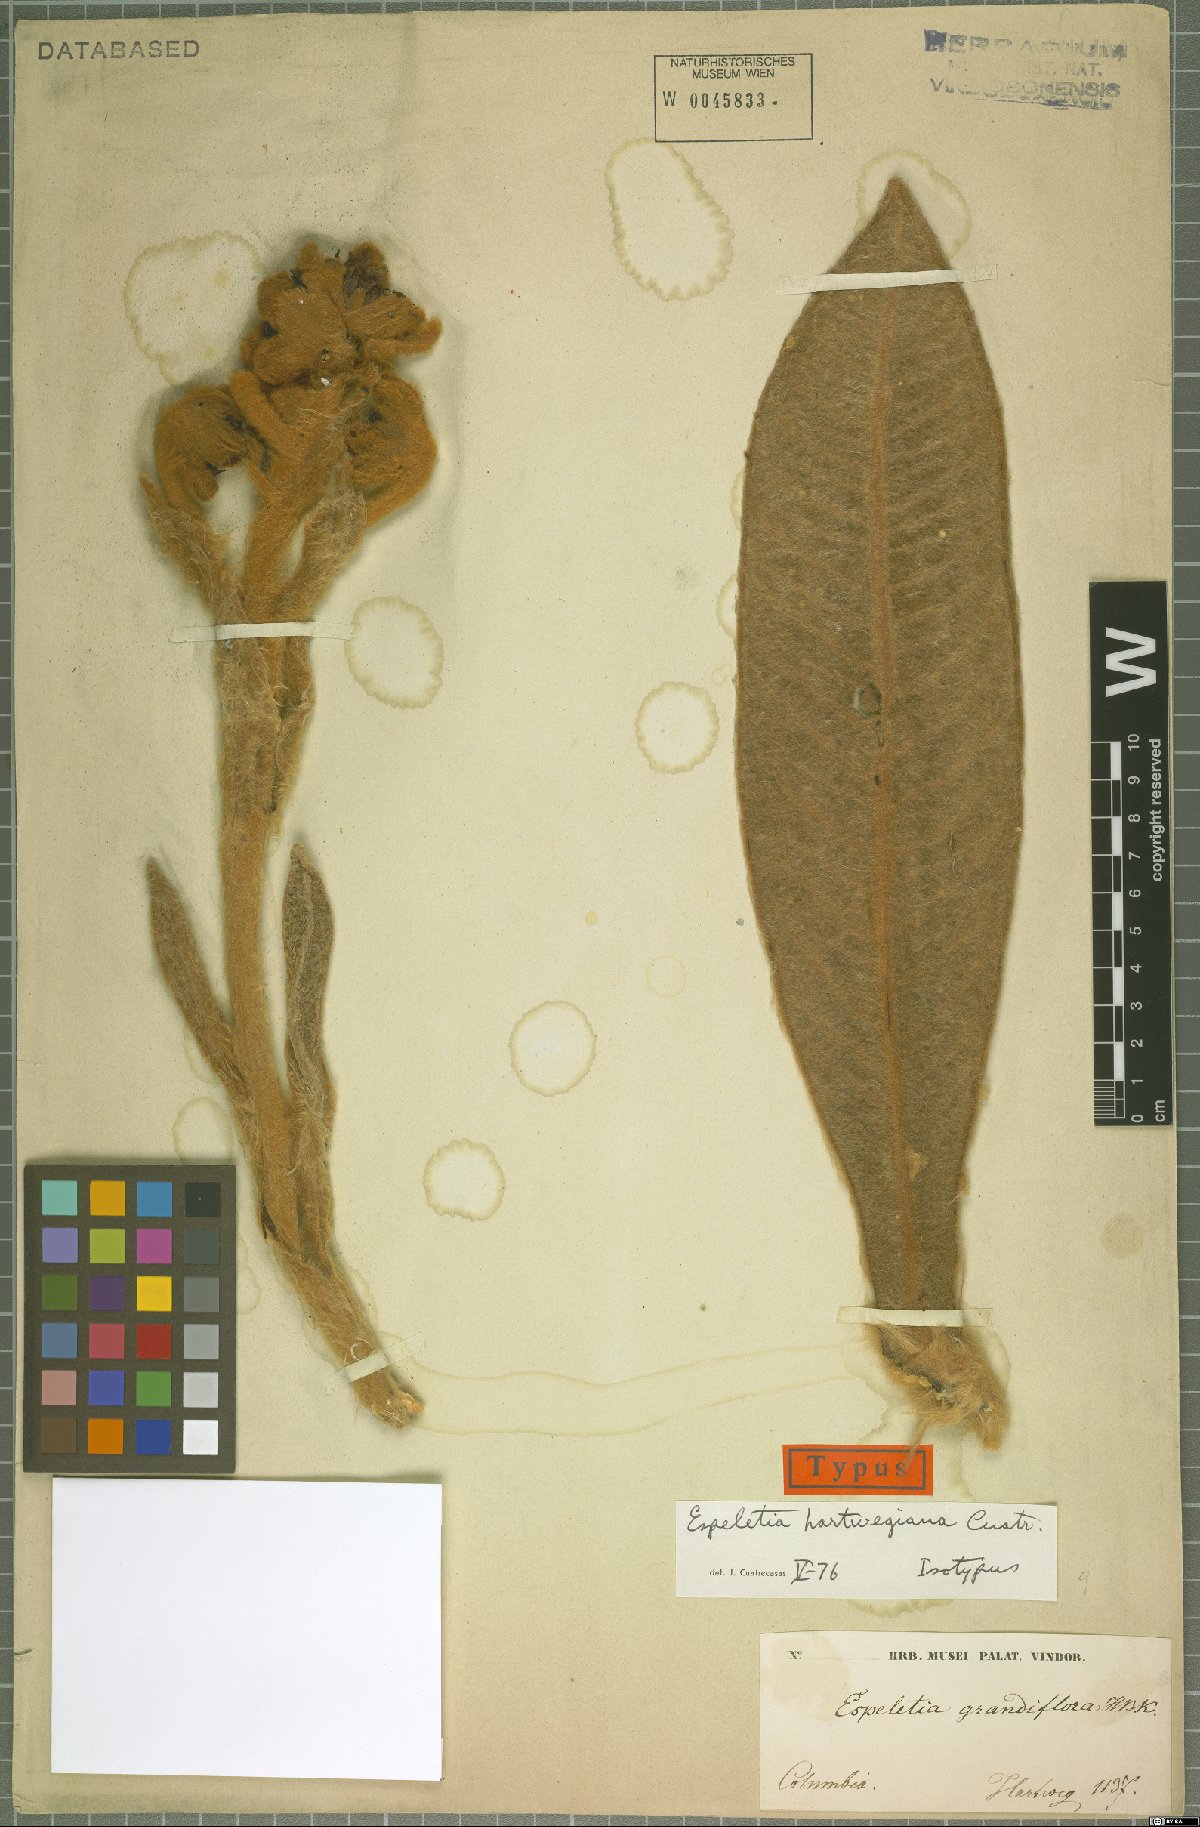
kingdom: Plantae
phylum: Tracheophyta
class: Magnoliopsida
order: Asterales
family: Asteraceae
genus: Espeletia
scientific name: Espeletia hartwegiana
